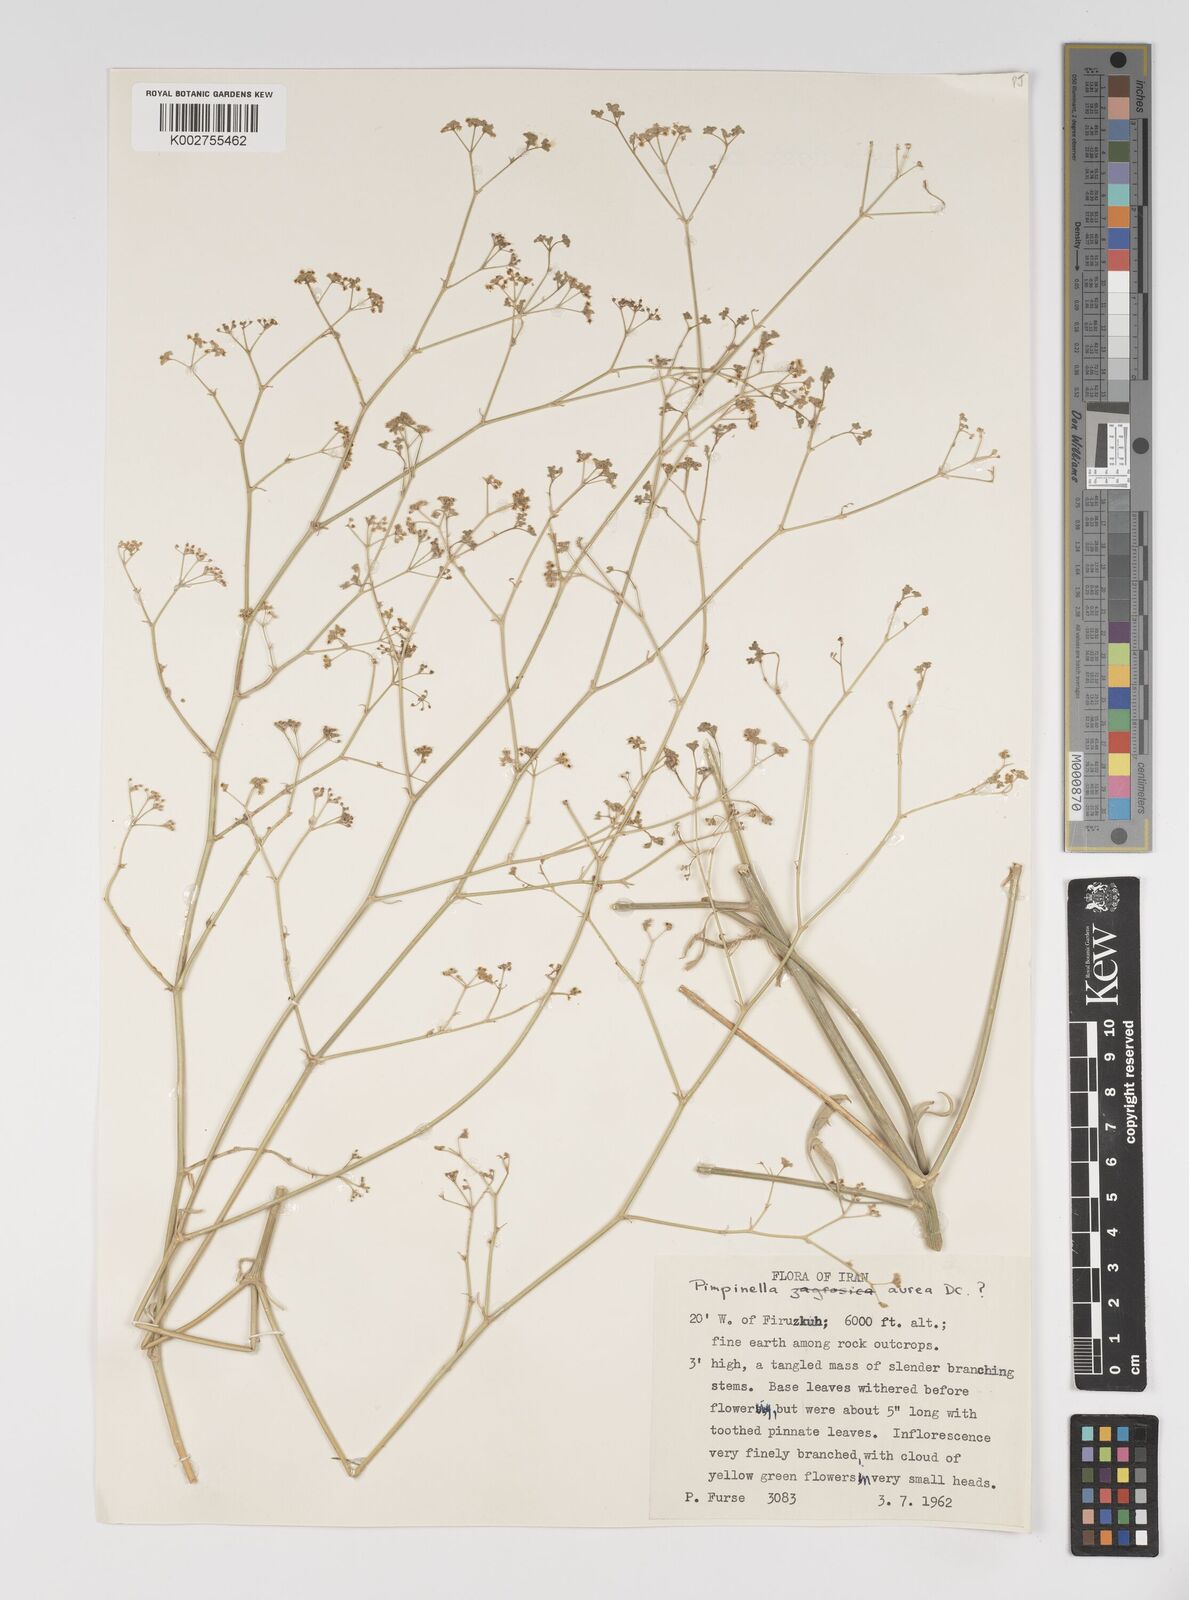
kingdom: Plantae
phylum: Tracheophyta
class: Magnoliopsida
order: Apiales
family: Apiaceae
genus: Pimpinella
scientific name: Pimpinella aurea
